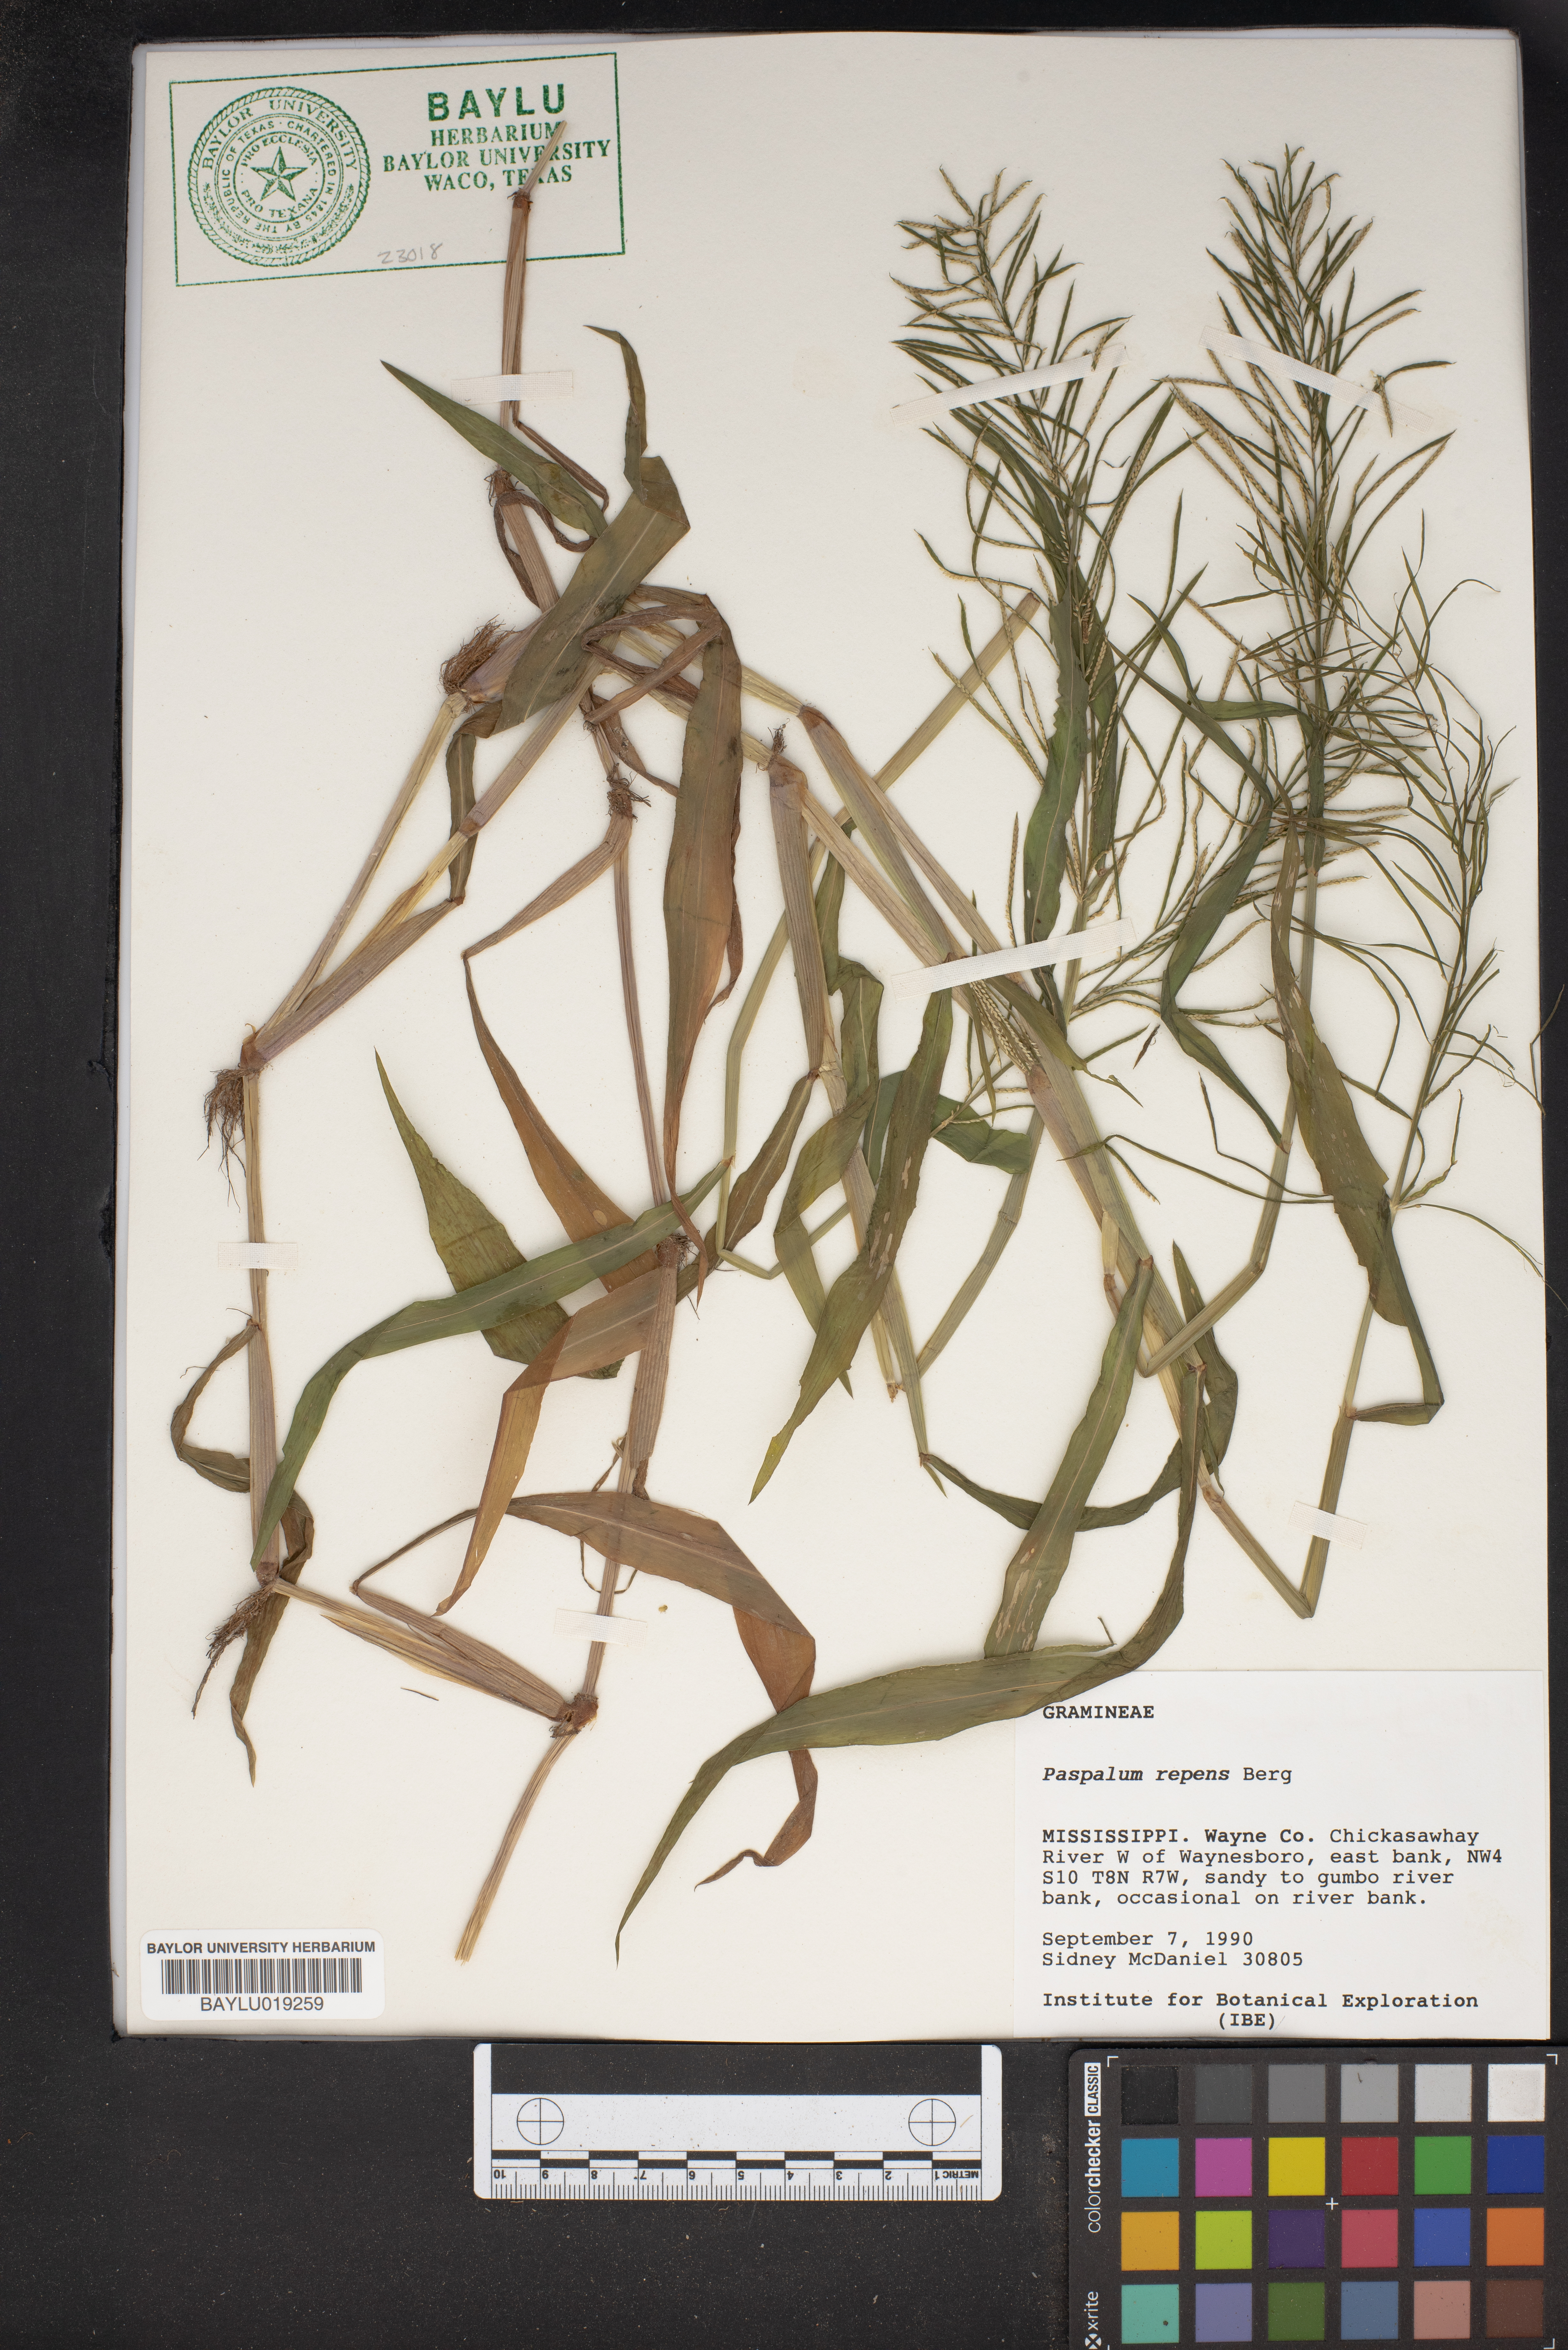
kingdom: Plantae
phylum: Tracheophyta
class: Liliopsida
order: Poales
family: Poaceae
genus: Paspalum
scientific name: Paspalum repens
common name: Water paspalum
